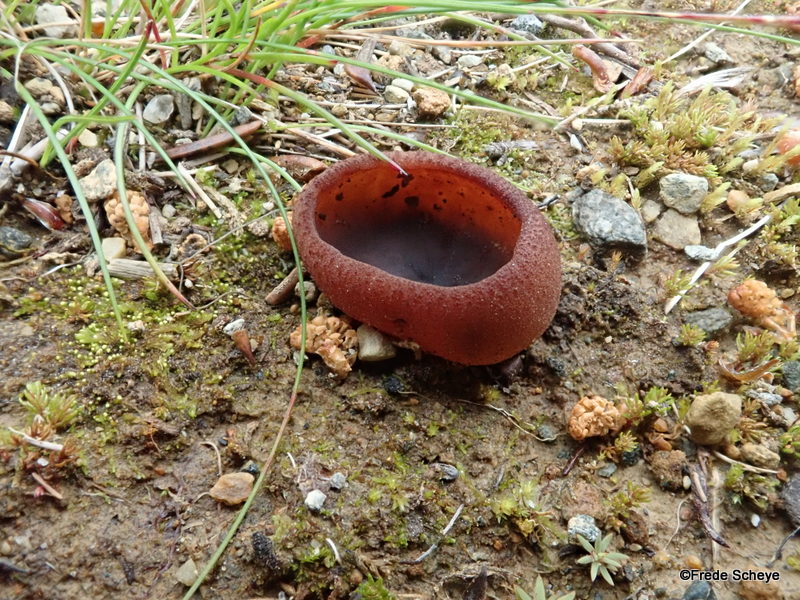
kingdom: Fungi
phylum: Ascomycota
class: Pezizomycetes
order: Pezizales
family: Pezizaceae
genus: Peziza
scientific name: Peziza
